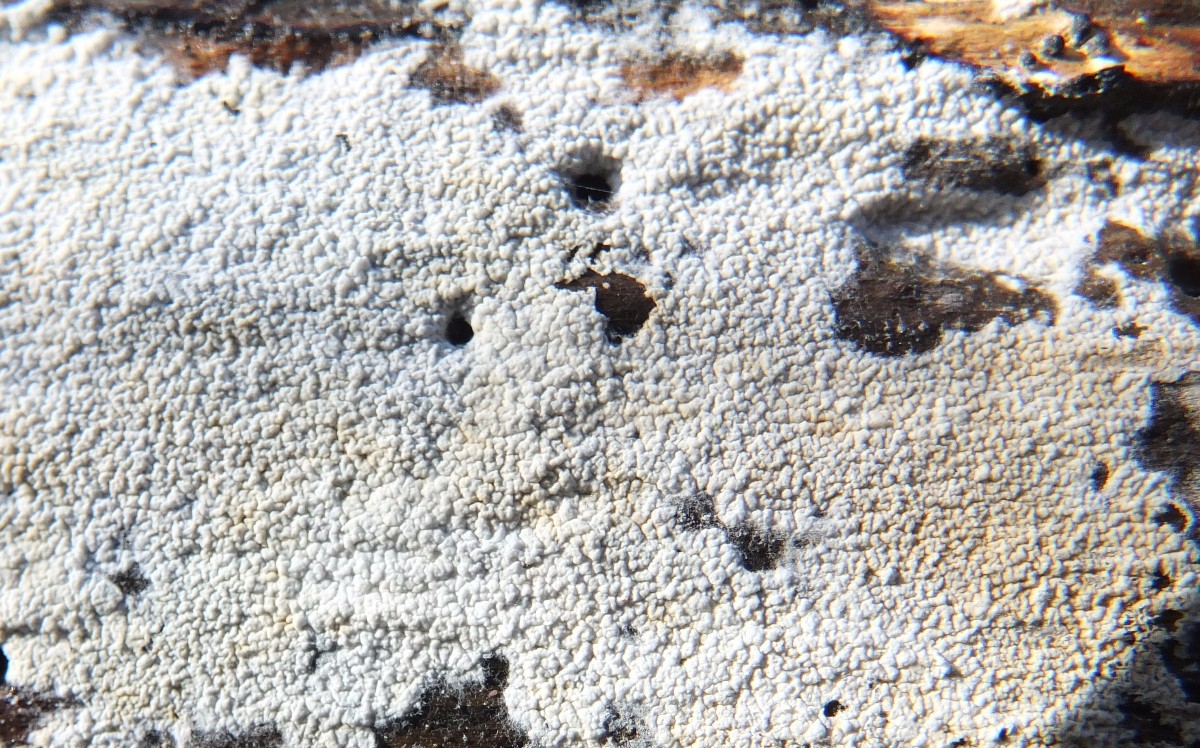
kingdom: Fungi
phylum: Basidiomycota
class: Agaricomycetes
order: Atheliales
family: Atheliaceae
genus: Athelia
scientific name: Athelia
